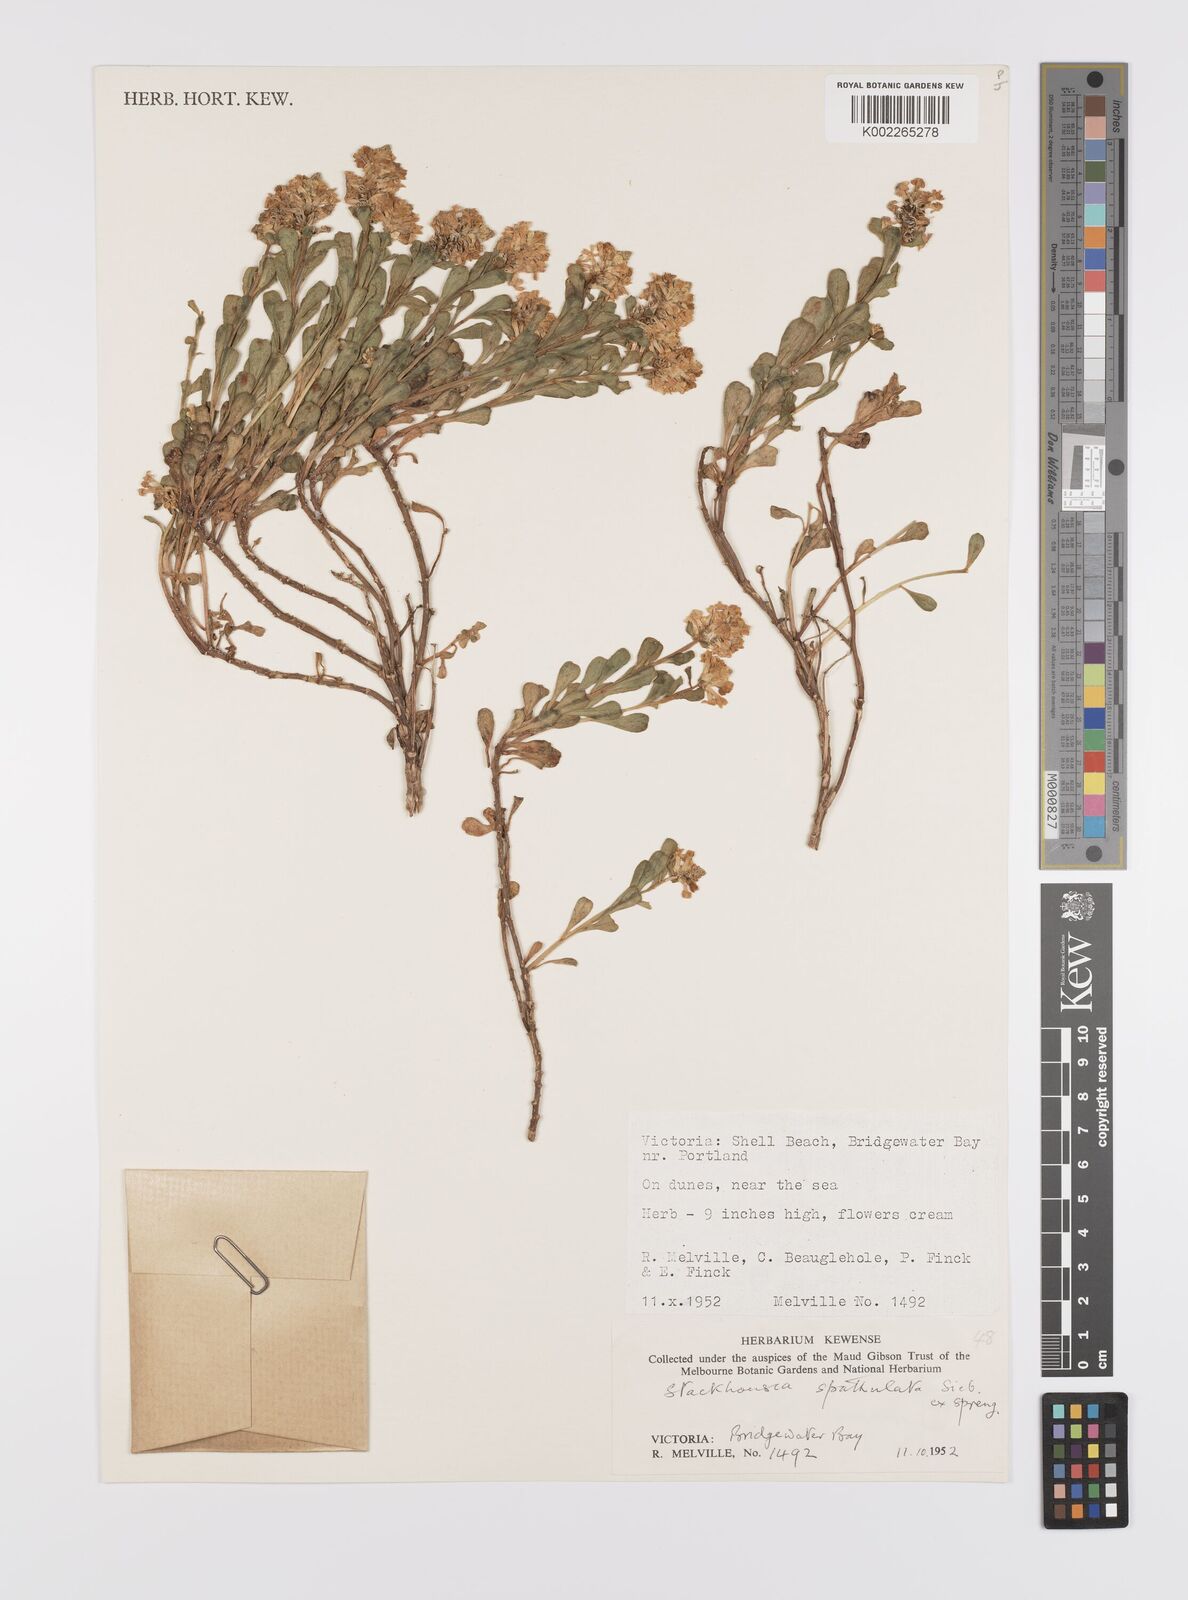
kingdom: Plantae
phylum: Tracheophyta
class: Magnoliopsida
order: Celastrales
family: Celastraceae
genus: Stackhousia
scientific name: Stackhousia spathulata
